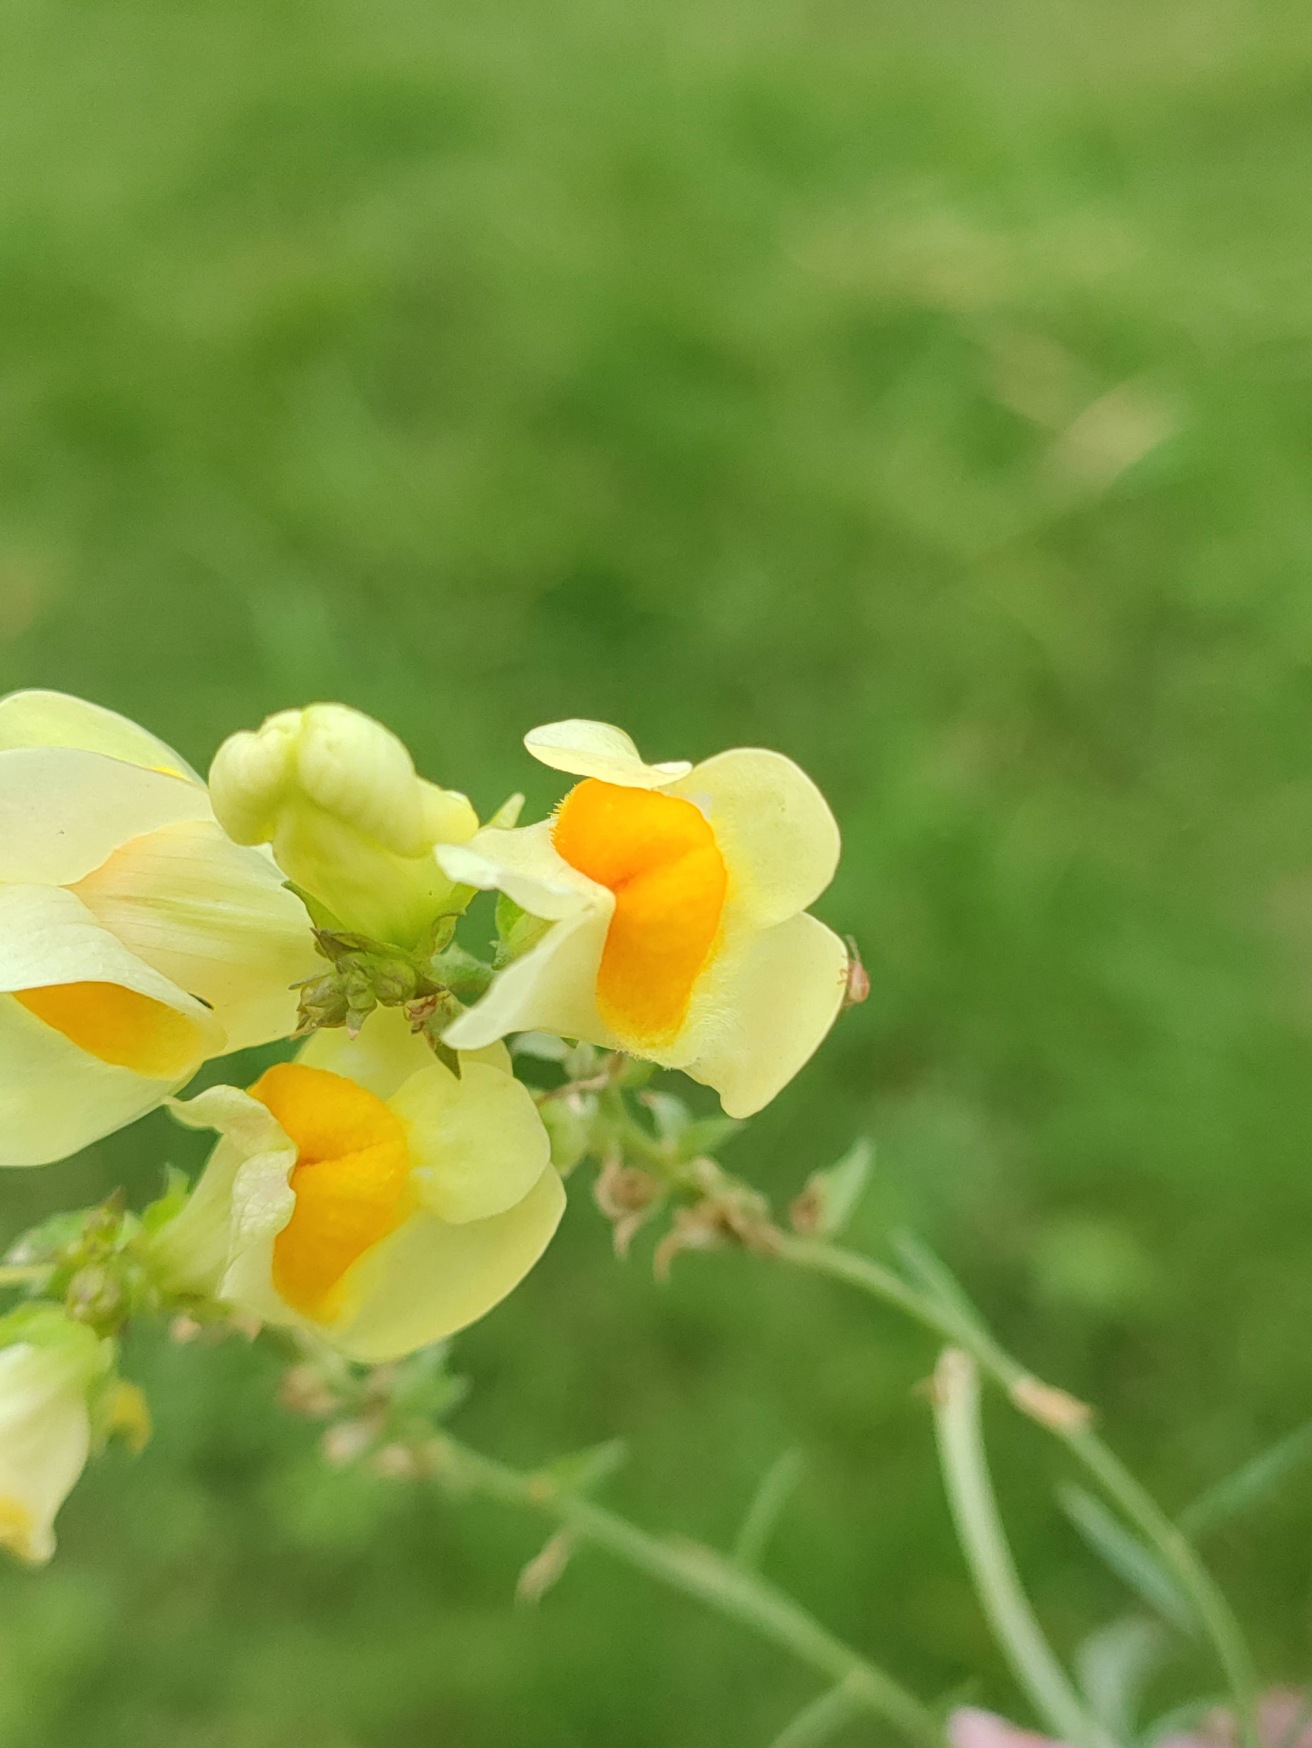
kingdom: Plantae
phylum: Tracheophyta
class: Magnoliopsida
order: Lamiales
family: Plantaginaceae
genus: Linaria
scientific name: Linaria vulgaris
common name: Almindelig torskemund
